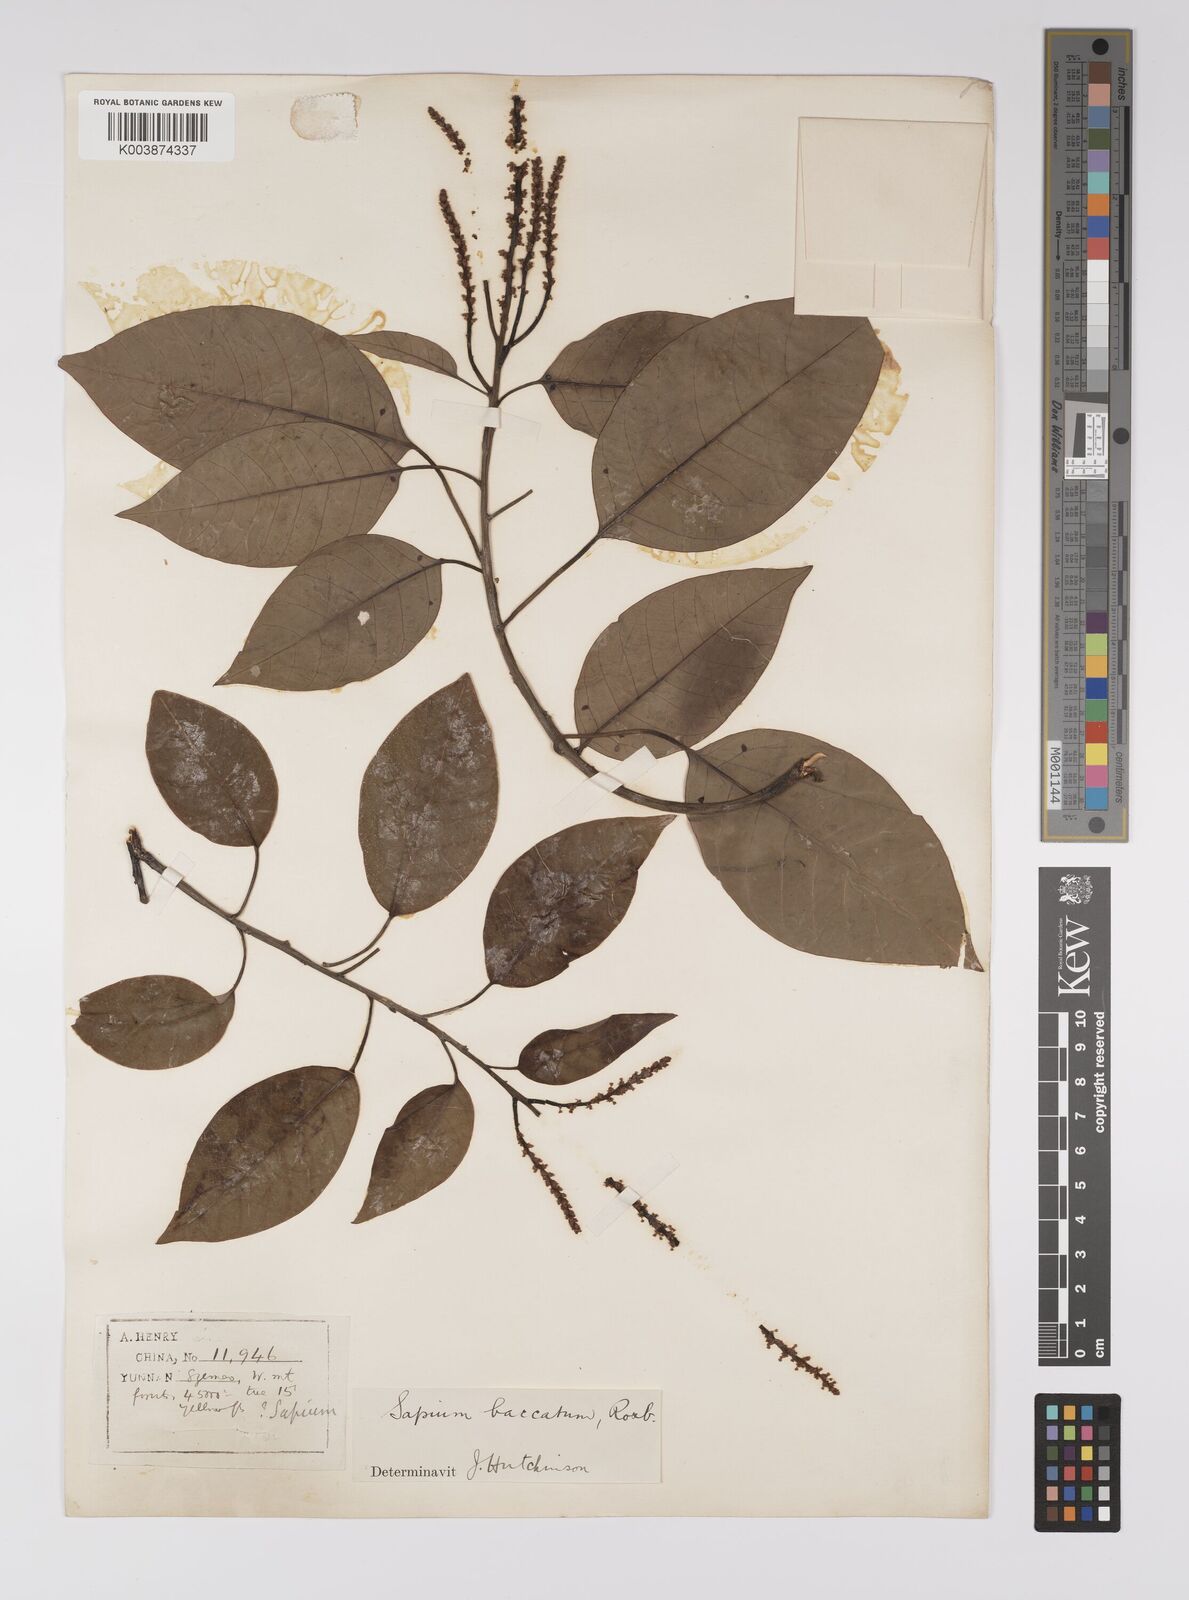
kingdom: Plantae
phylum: Tracheophyta
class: Magnoliopsida
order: Malpighiales
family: Euphorbiaceae
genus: Balakata
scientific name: Balakata baccata
